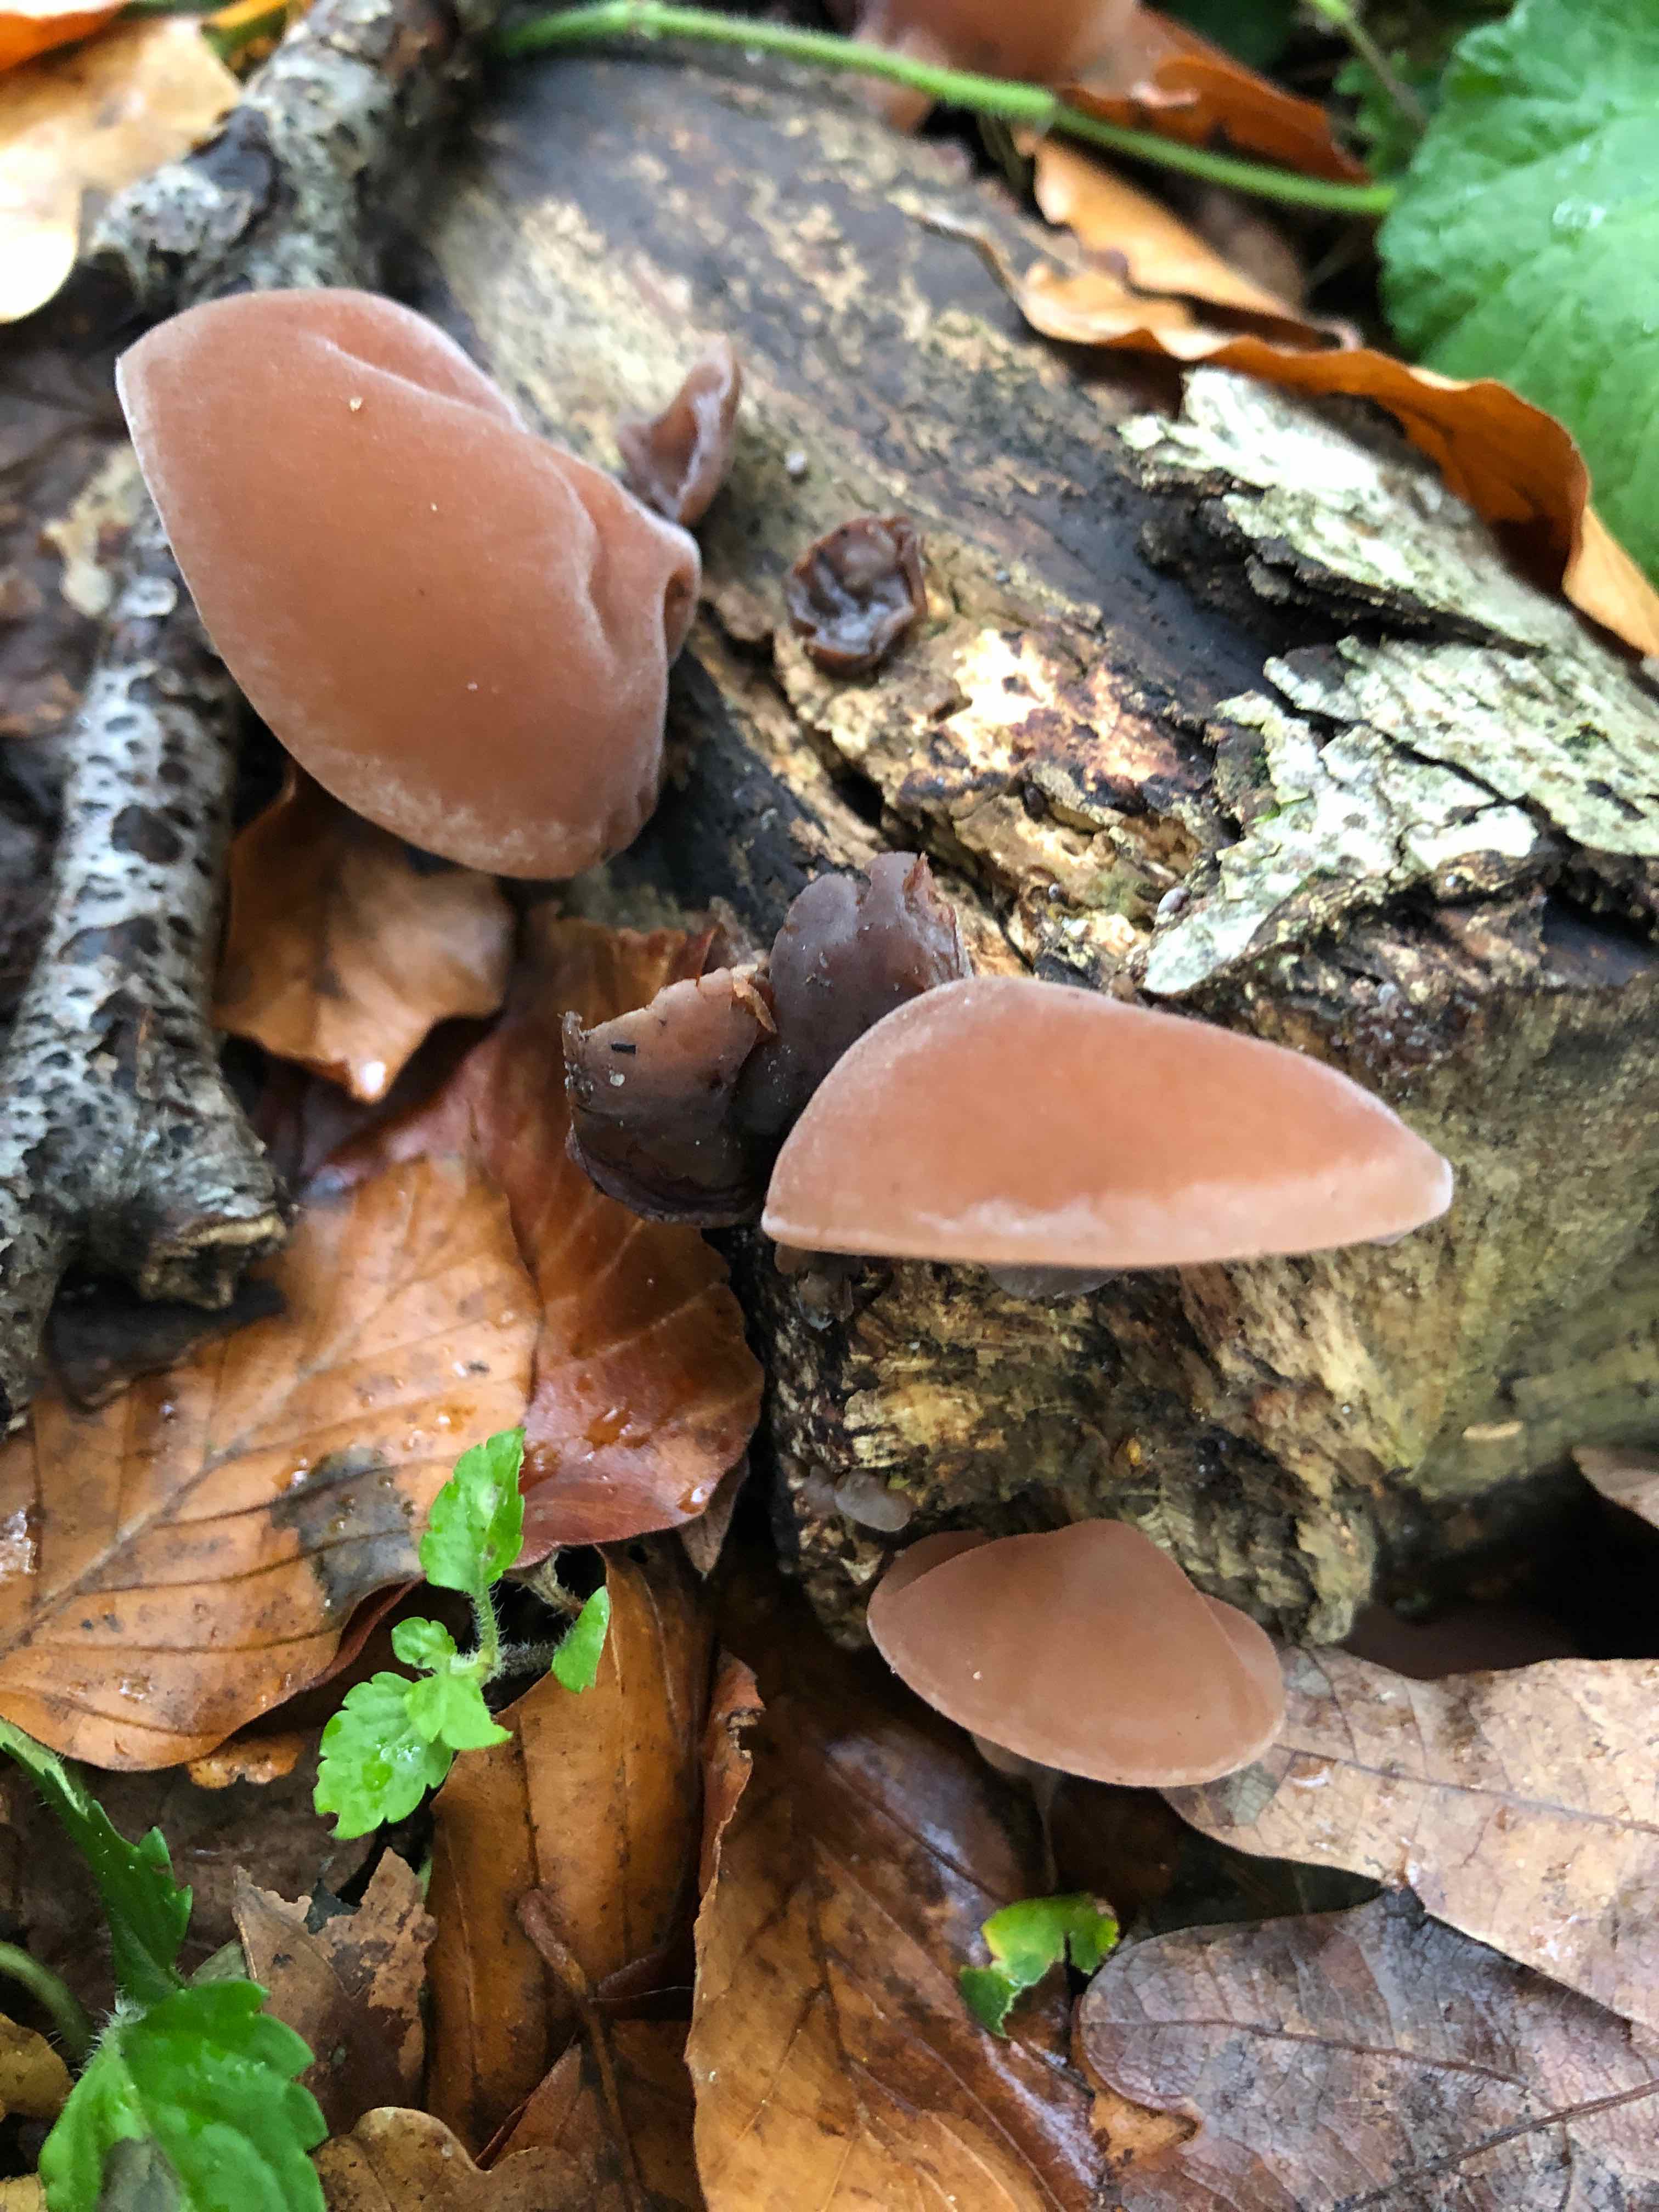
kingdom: Fungi
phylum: Basidiomycota
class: Agaricomycetes
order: Auriculariales
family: Auriculariaceae
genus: Auricularia
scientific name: Auricularia auricula-judae
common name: almindelig judasøre
